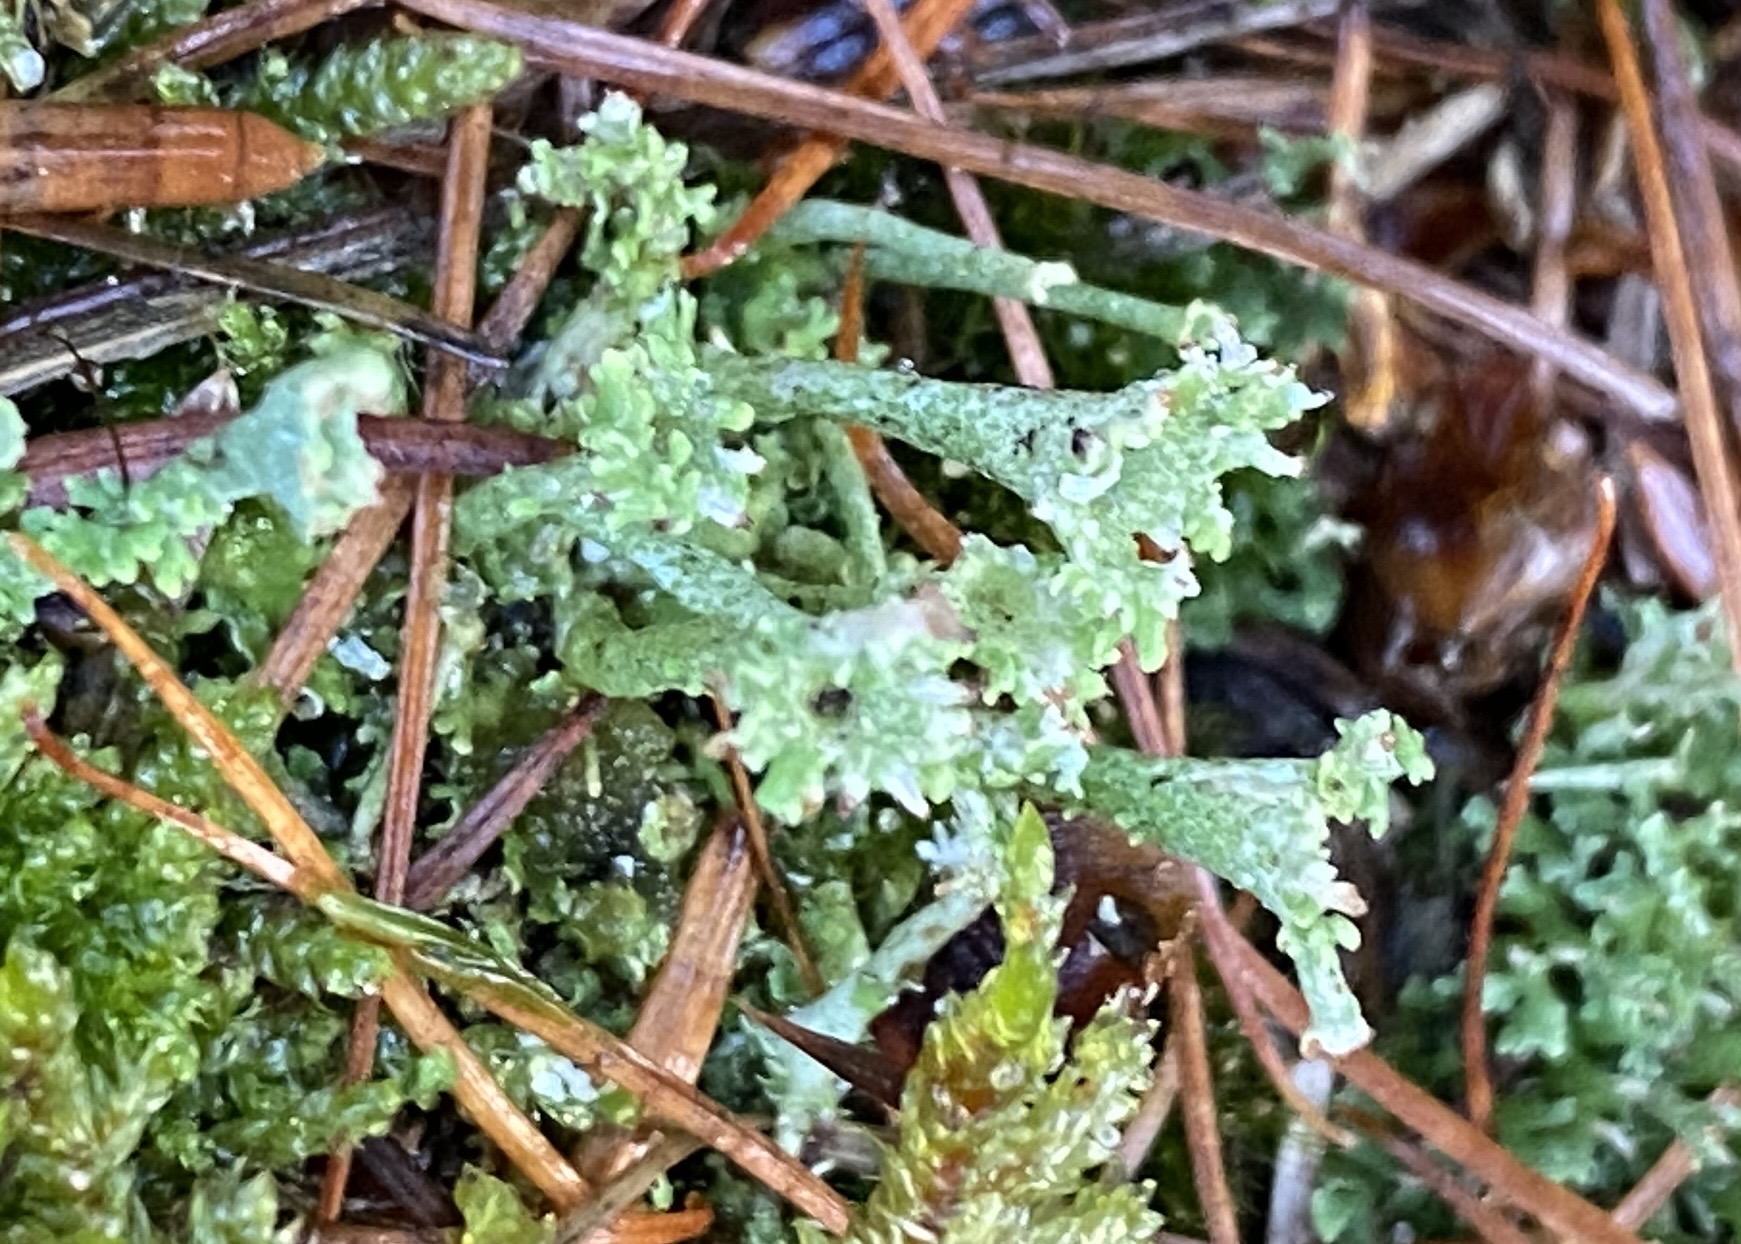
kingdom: Fungi
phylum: Ascomycota
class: Lecanoromycetes
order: Lecanorales
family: Cladoniaceae
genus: Cladonia
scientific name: Cladonia
